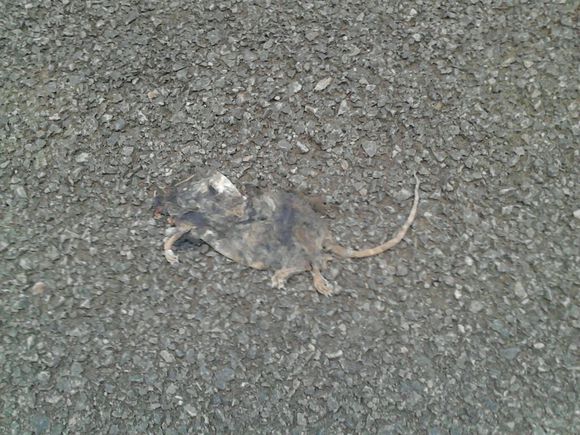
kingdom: Animalia
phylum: Chordata
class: Mammalia
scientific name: Mammalia
